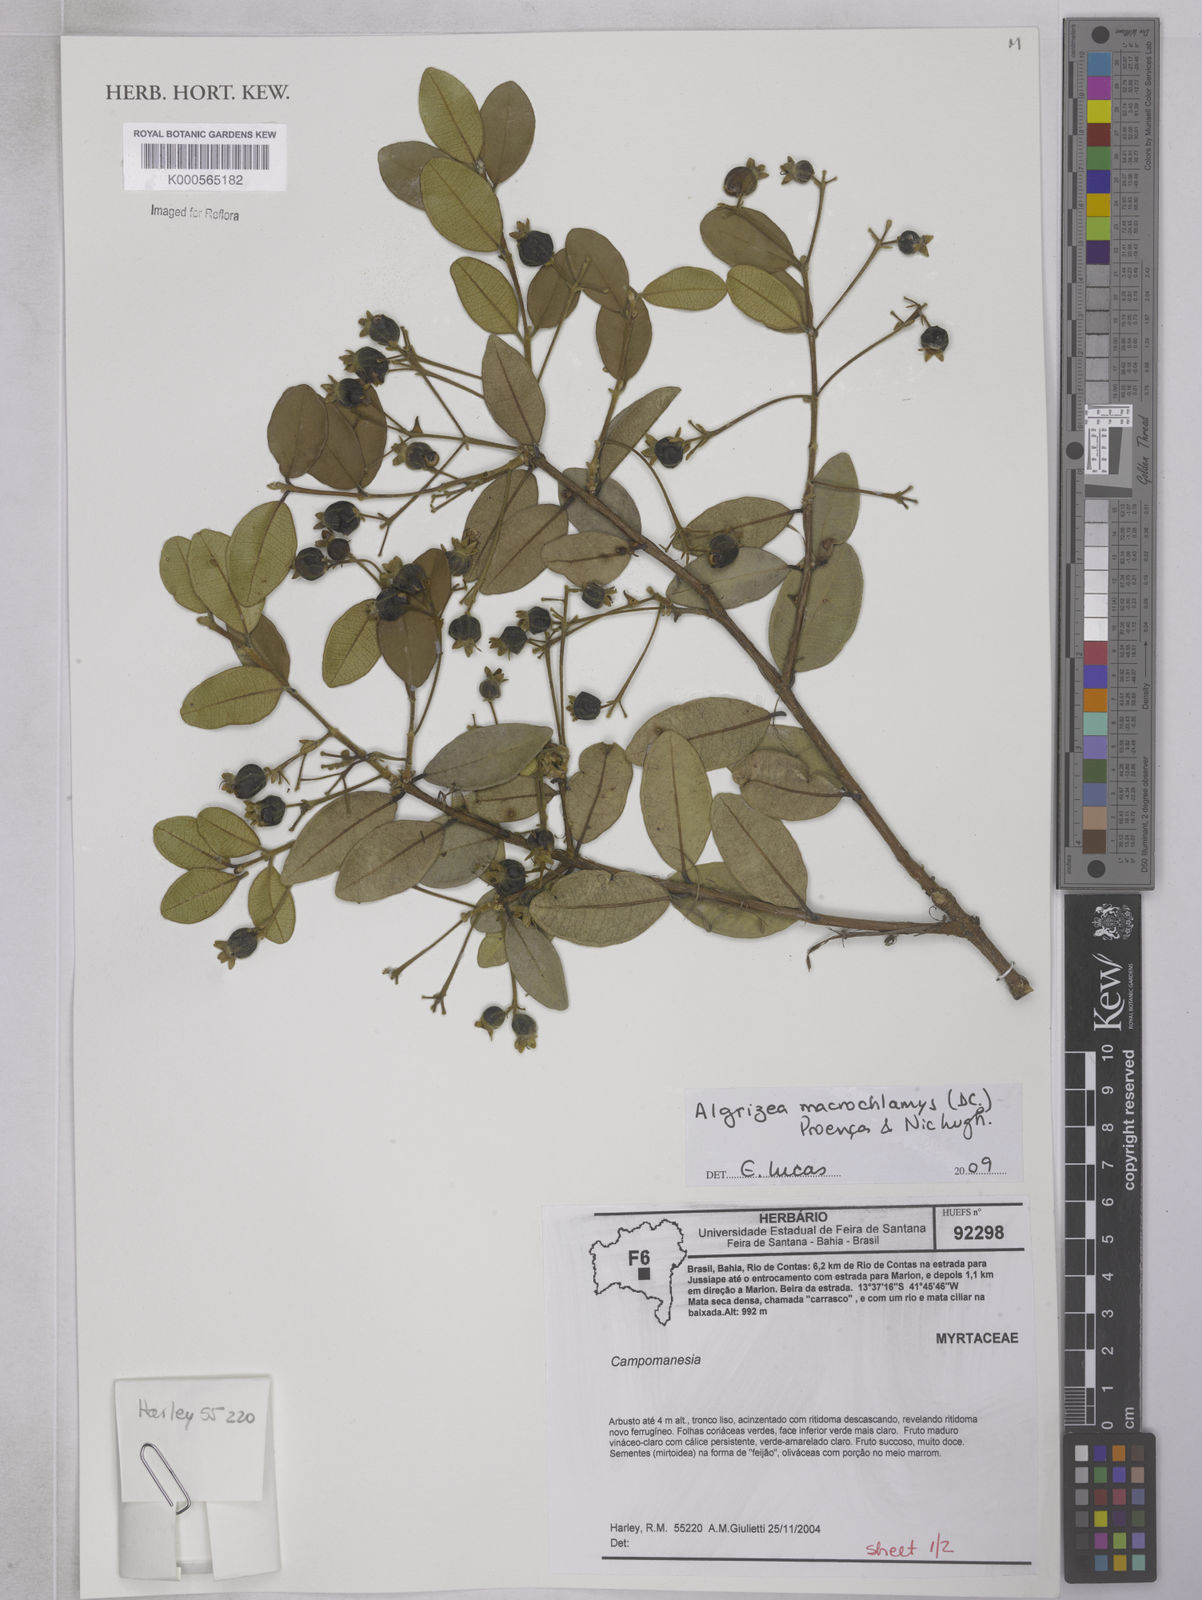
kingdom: Plantae
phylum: Tracheophyta
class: Magnoliopsida
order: Myrtales
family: Myrtaceae
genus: Algrizea
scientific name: Algrizea
